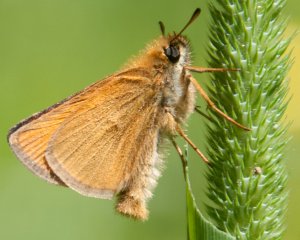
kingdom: Animalia
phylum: Arthropoda
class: Insecta
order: Lepidoptera
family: Hesperiidae
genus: Thymelicus
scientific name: Thymelicus lineola
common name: European Skipper
